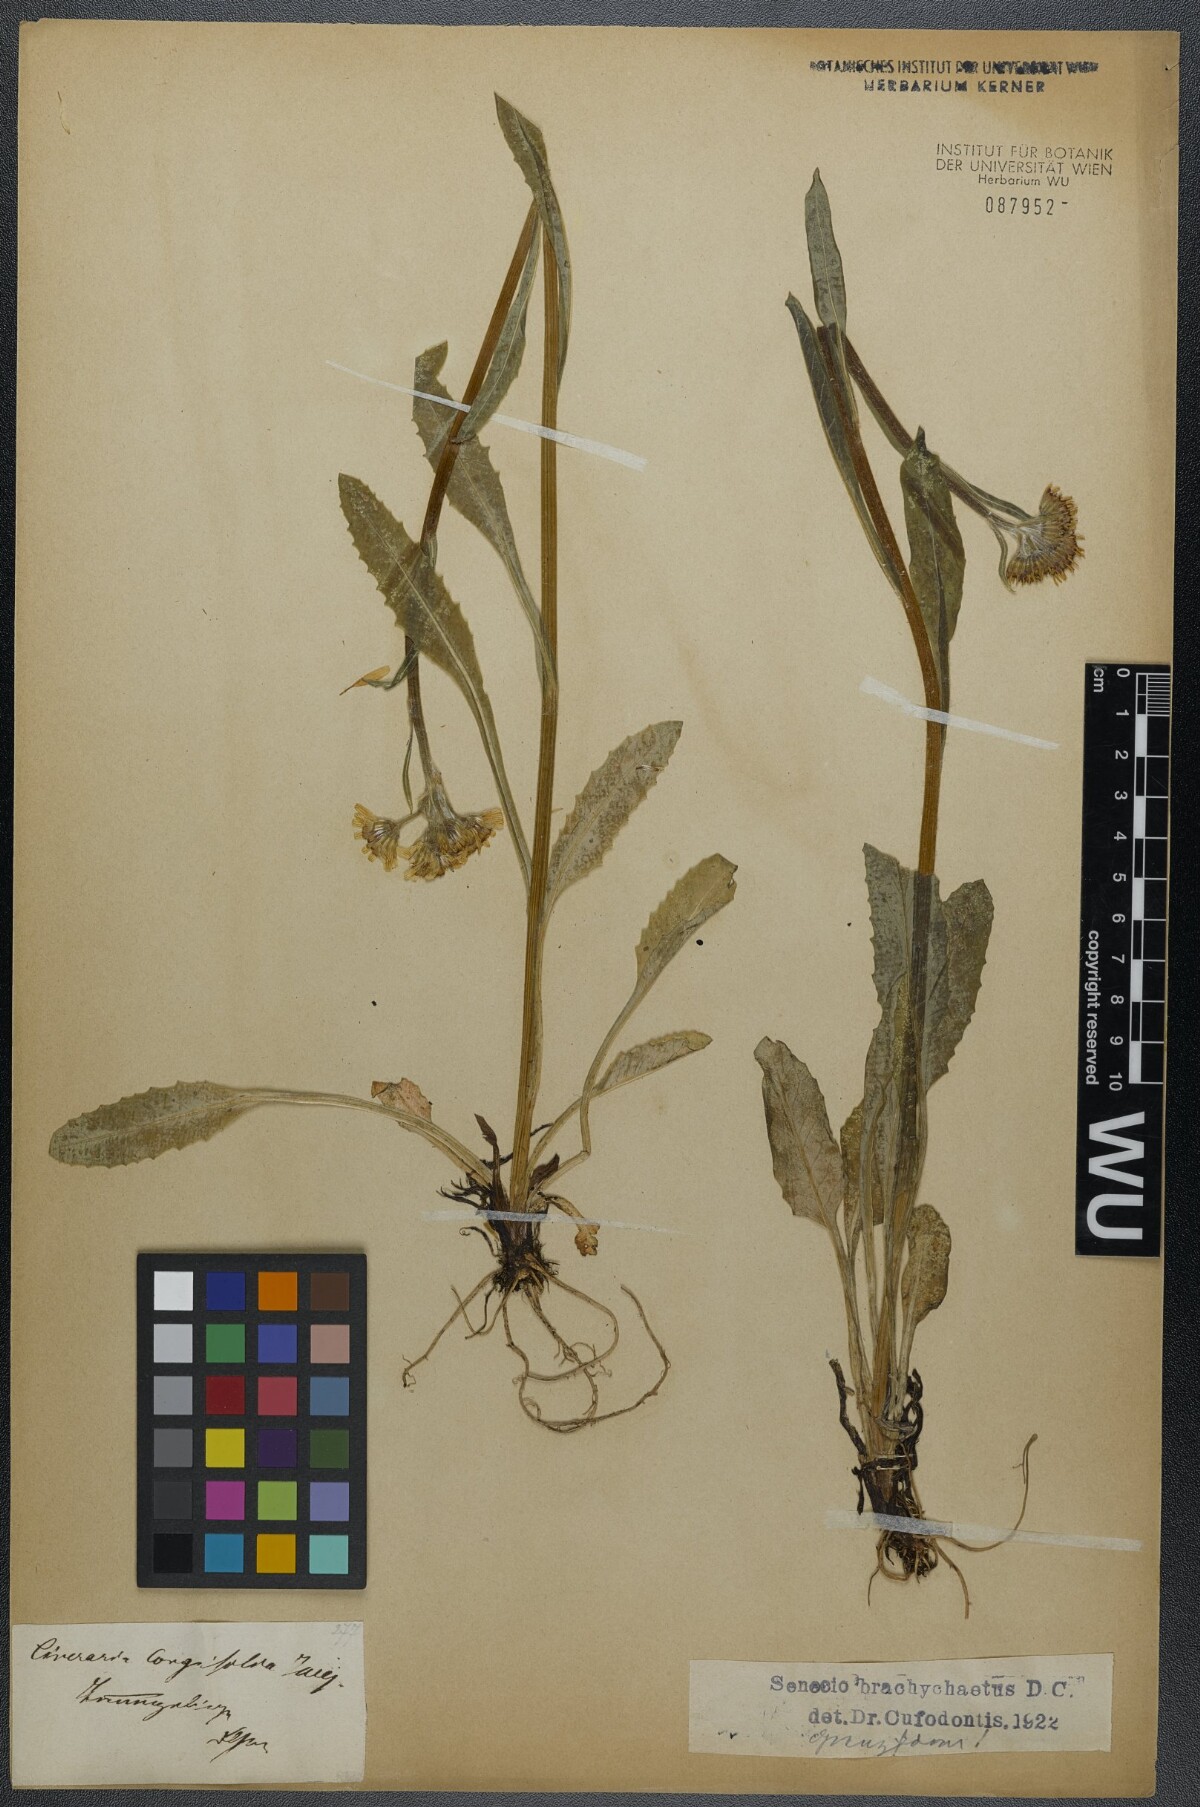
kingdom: Plantae
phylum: Tracheophyta
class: Magnoliopsida
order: Asterales
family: Asteraceae
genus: Tephroseris
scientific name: Tephroseris helenitis
